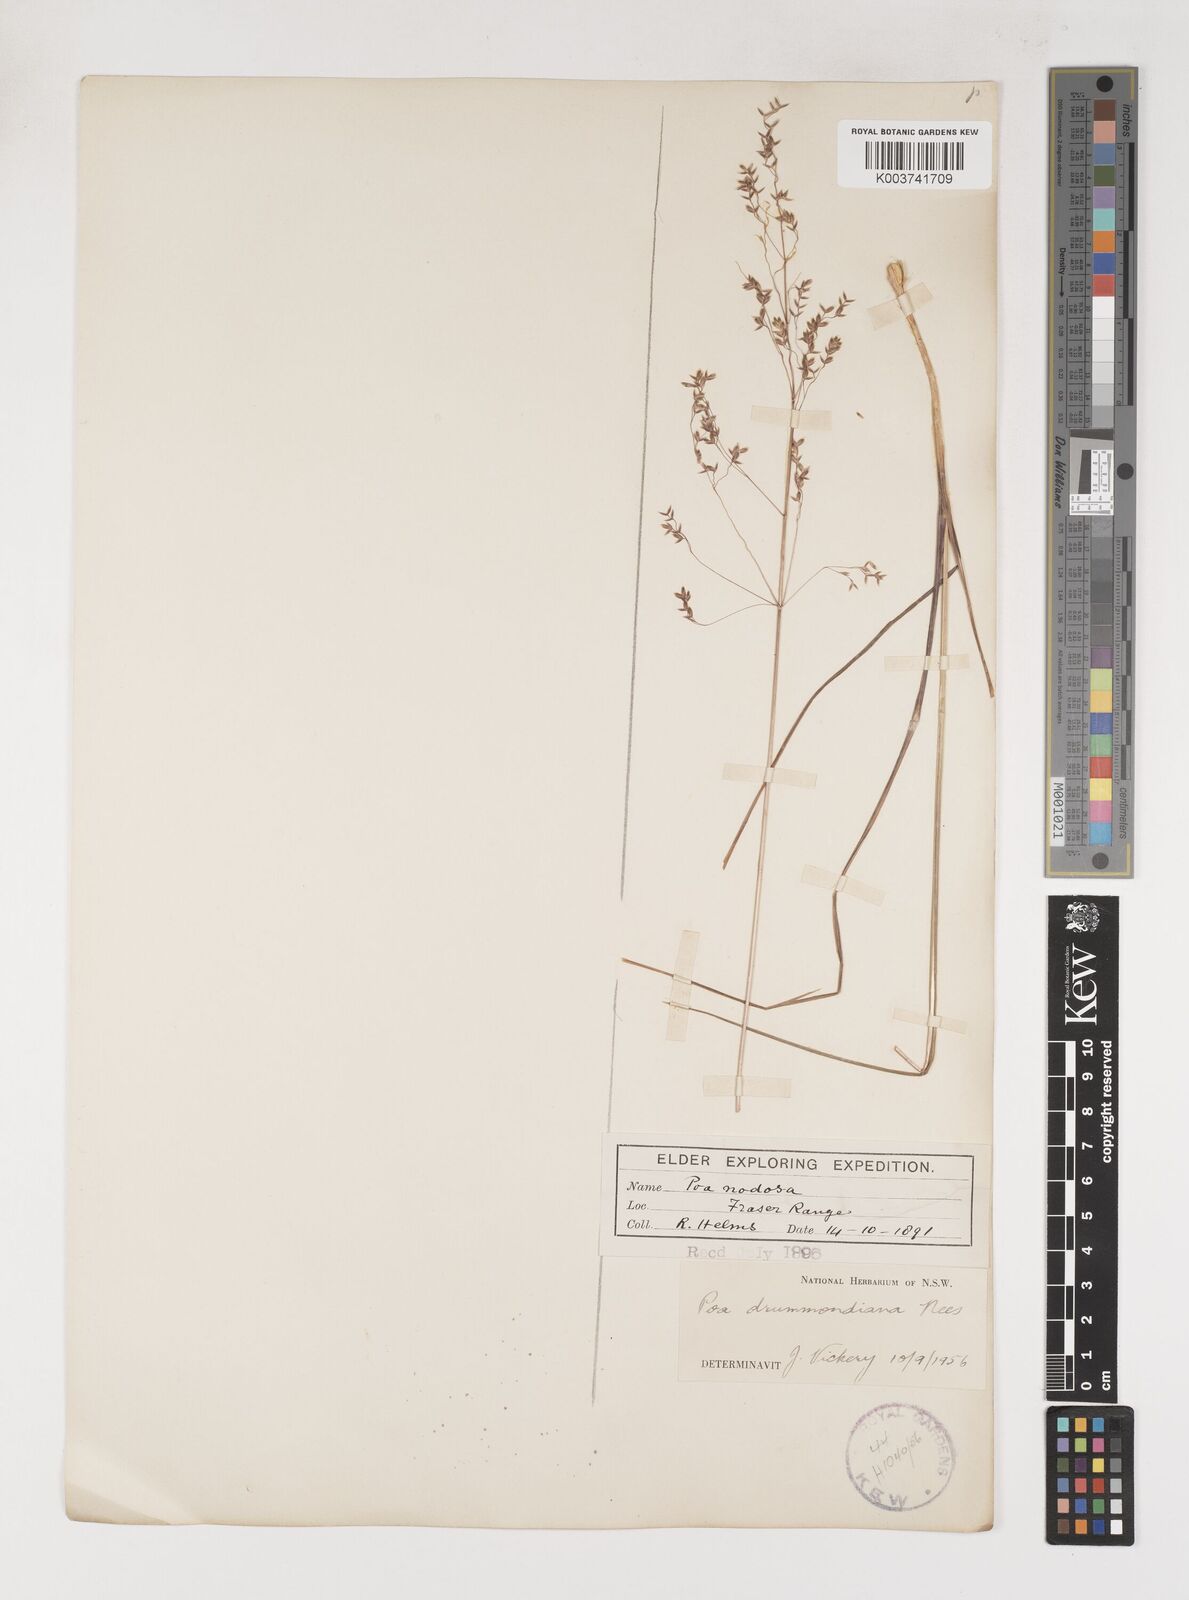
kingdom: Plantae
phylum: Tracheophyta
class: Liliopsida
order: Poales
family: Poaceae
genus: Poa
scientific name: Poa drummondiana
